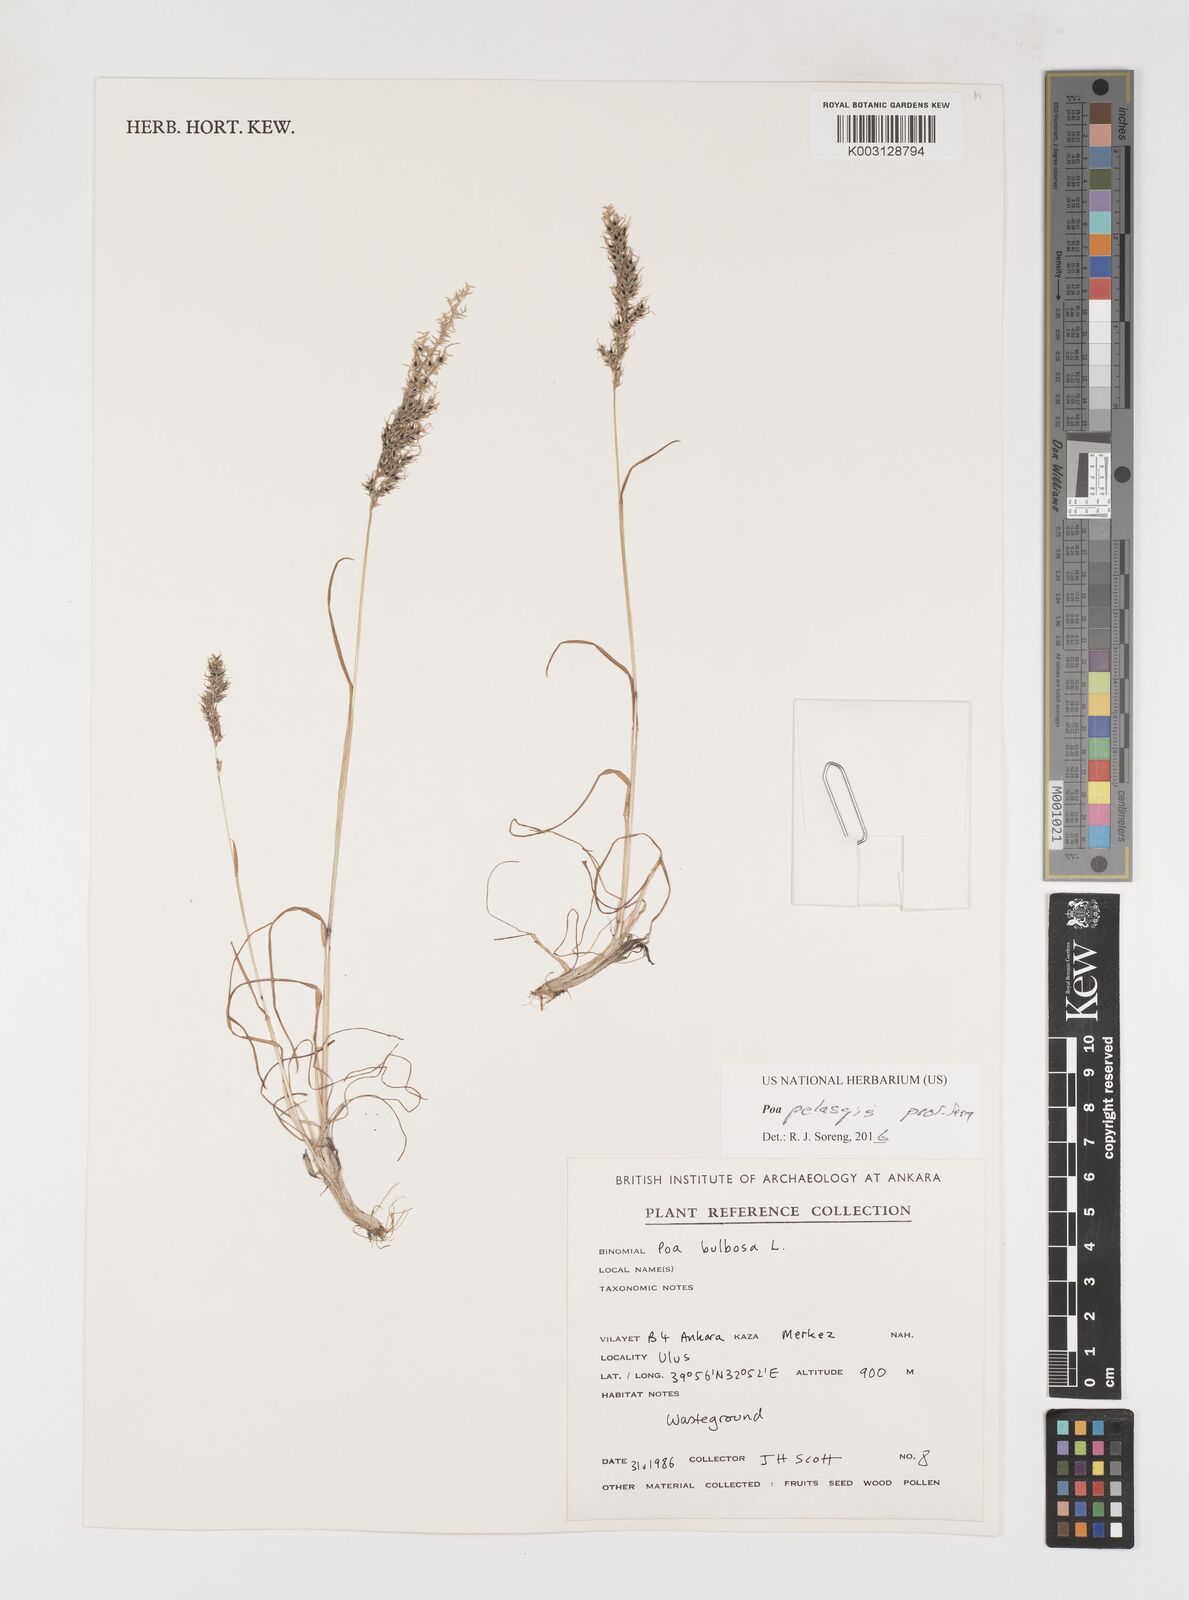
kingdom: Plantae
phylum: Tracheophyta
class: Liliopsida
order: Poales
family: Poaceae
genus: Poa
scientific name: Poa iconia
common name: Konya bluegrass
